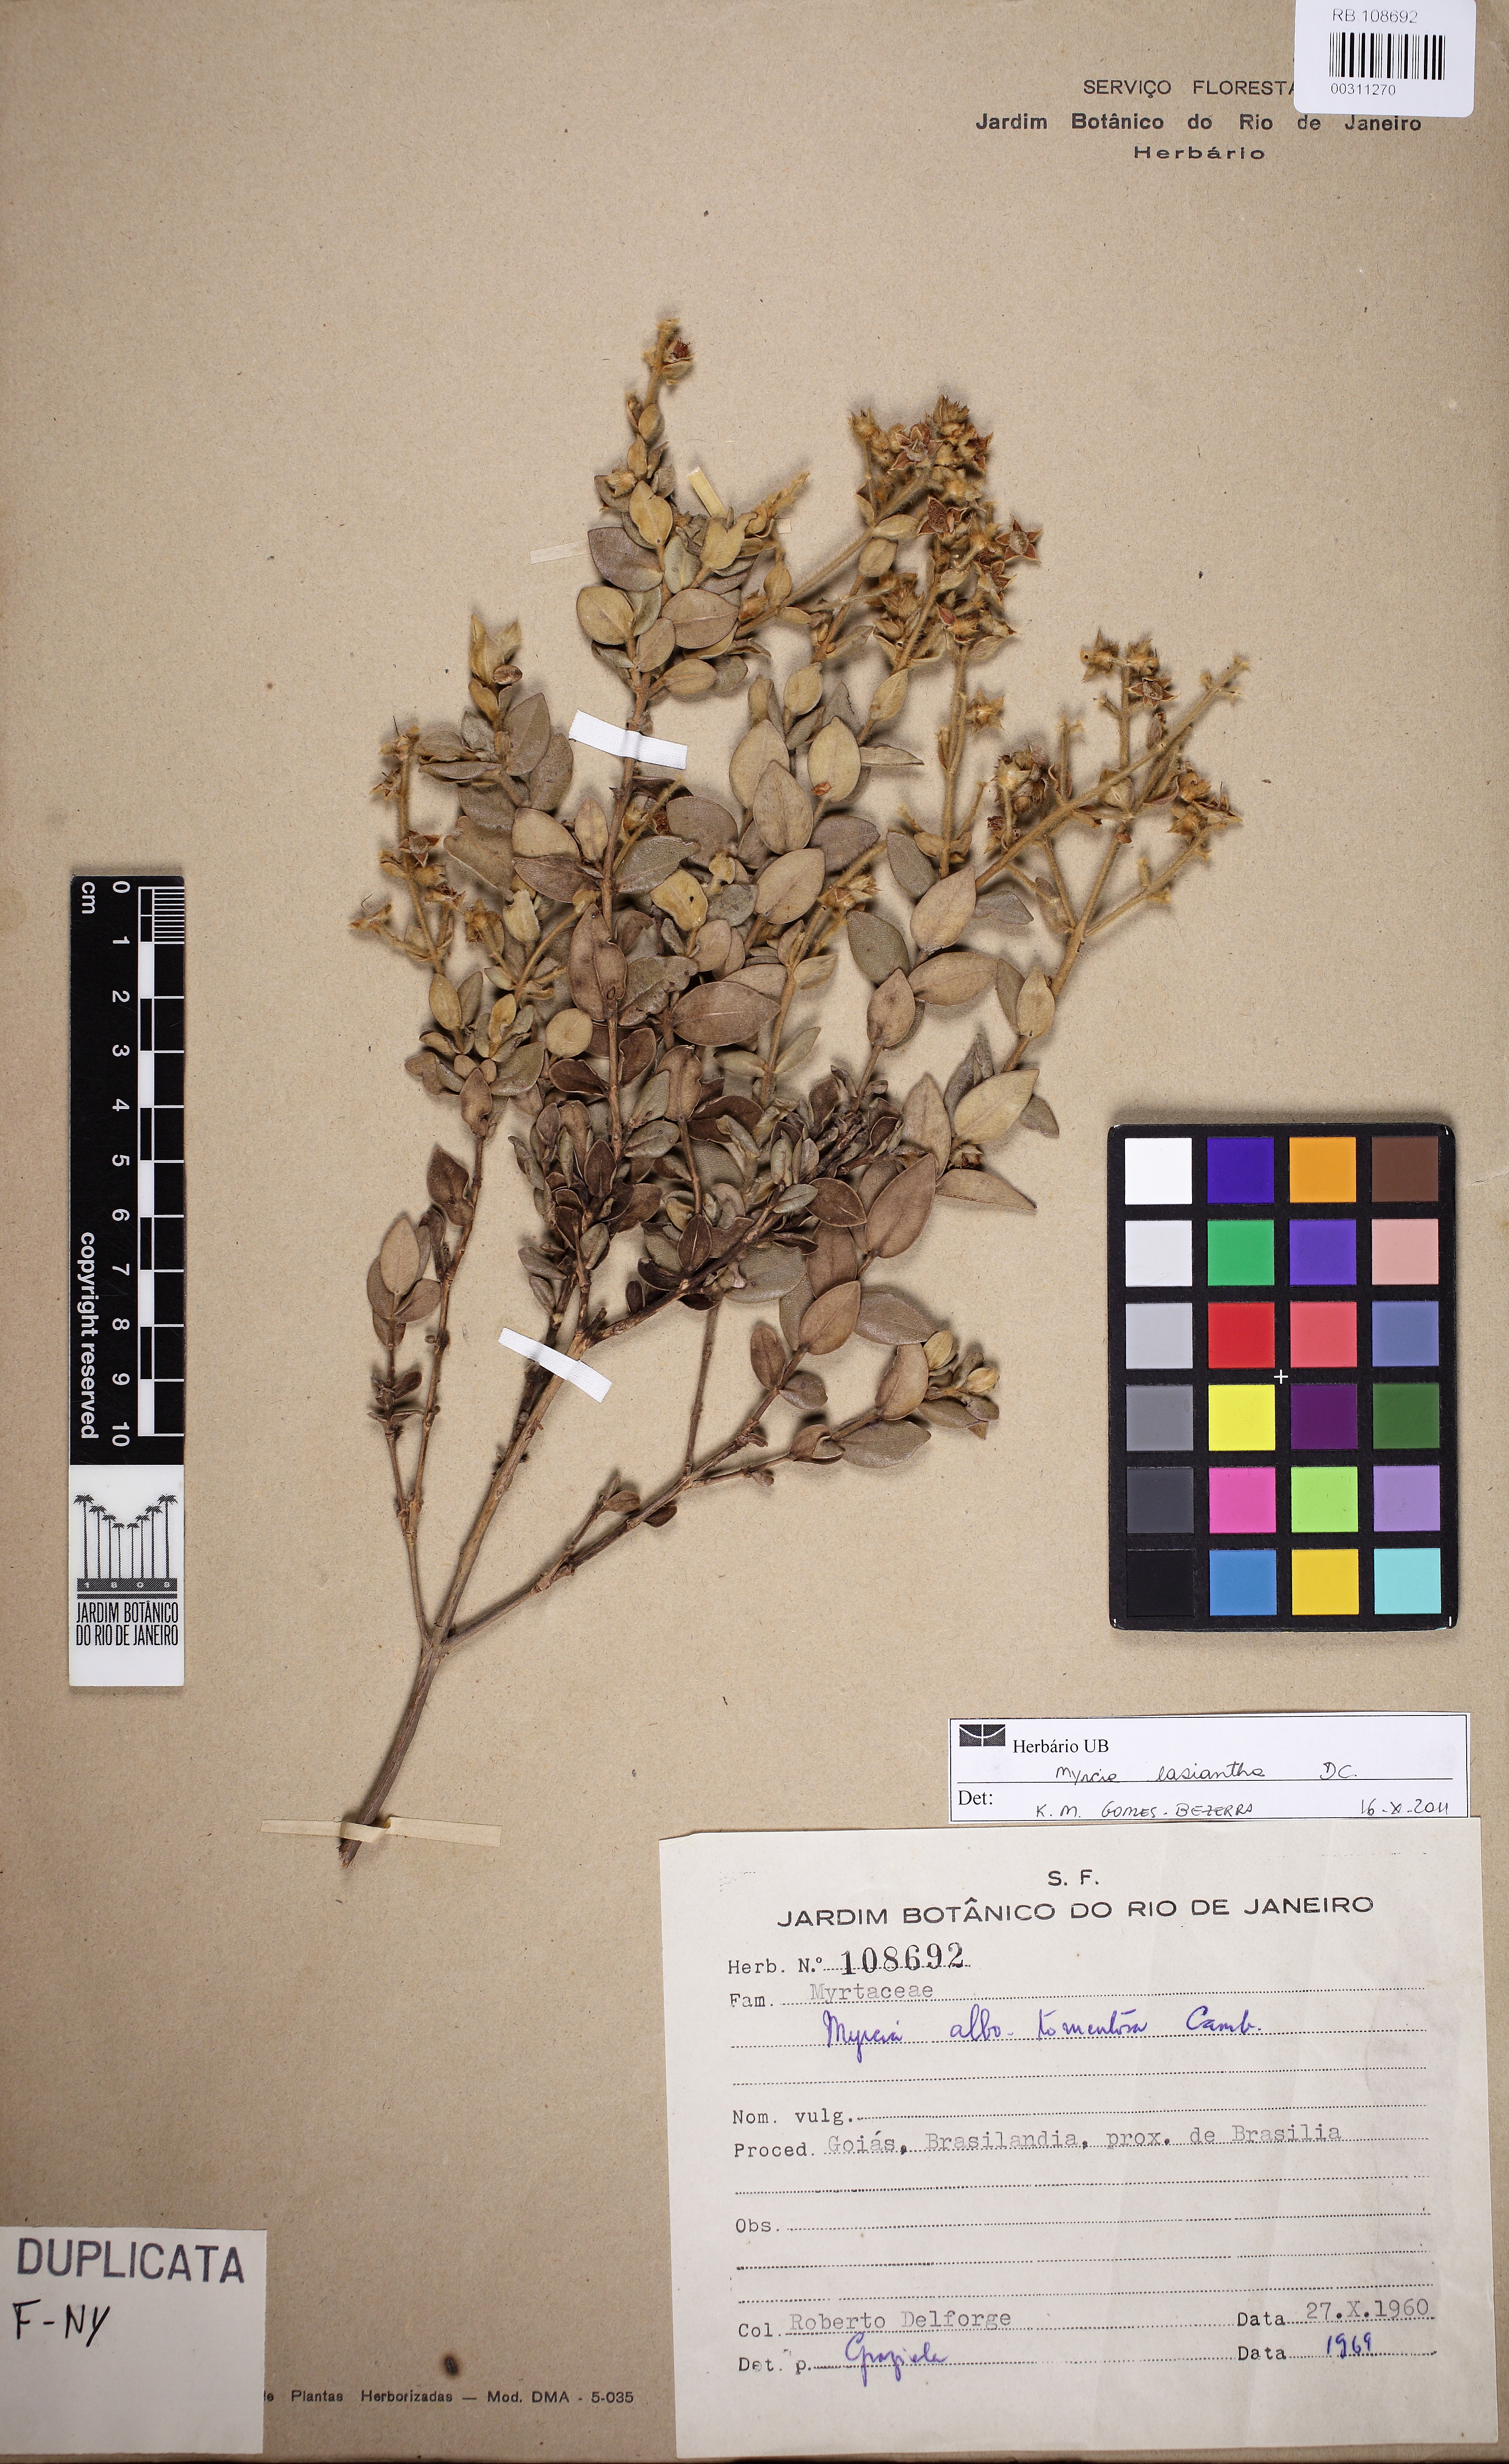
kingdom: Plantae
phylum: Tracheophyta
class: Magnoliopsida
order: Myrtales
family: Myrtaceae
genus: Myrcia
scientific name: Myrcia lasiantha
